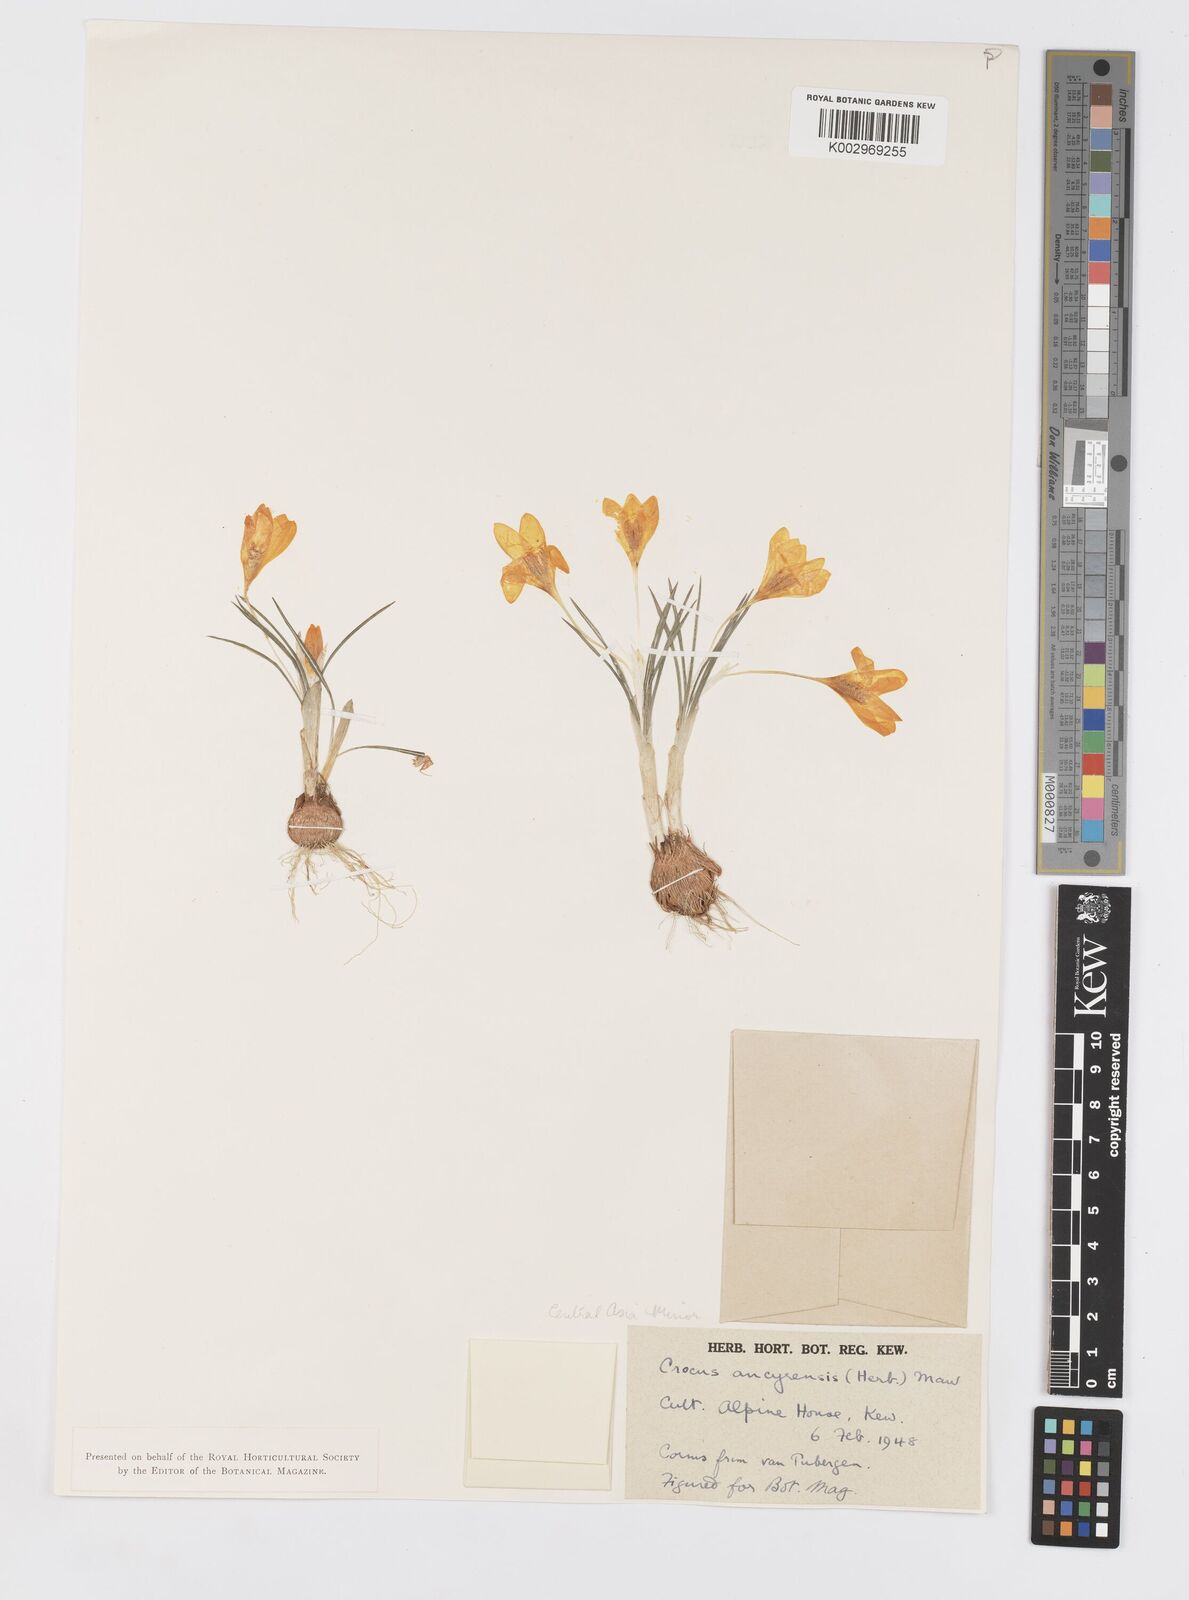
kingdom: Plantae
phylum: Tracheophyta
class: Liliopsida
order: Asparagales
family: Iridaceae
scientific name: Iridaceae
